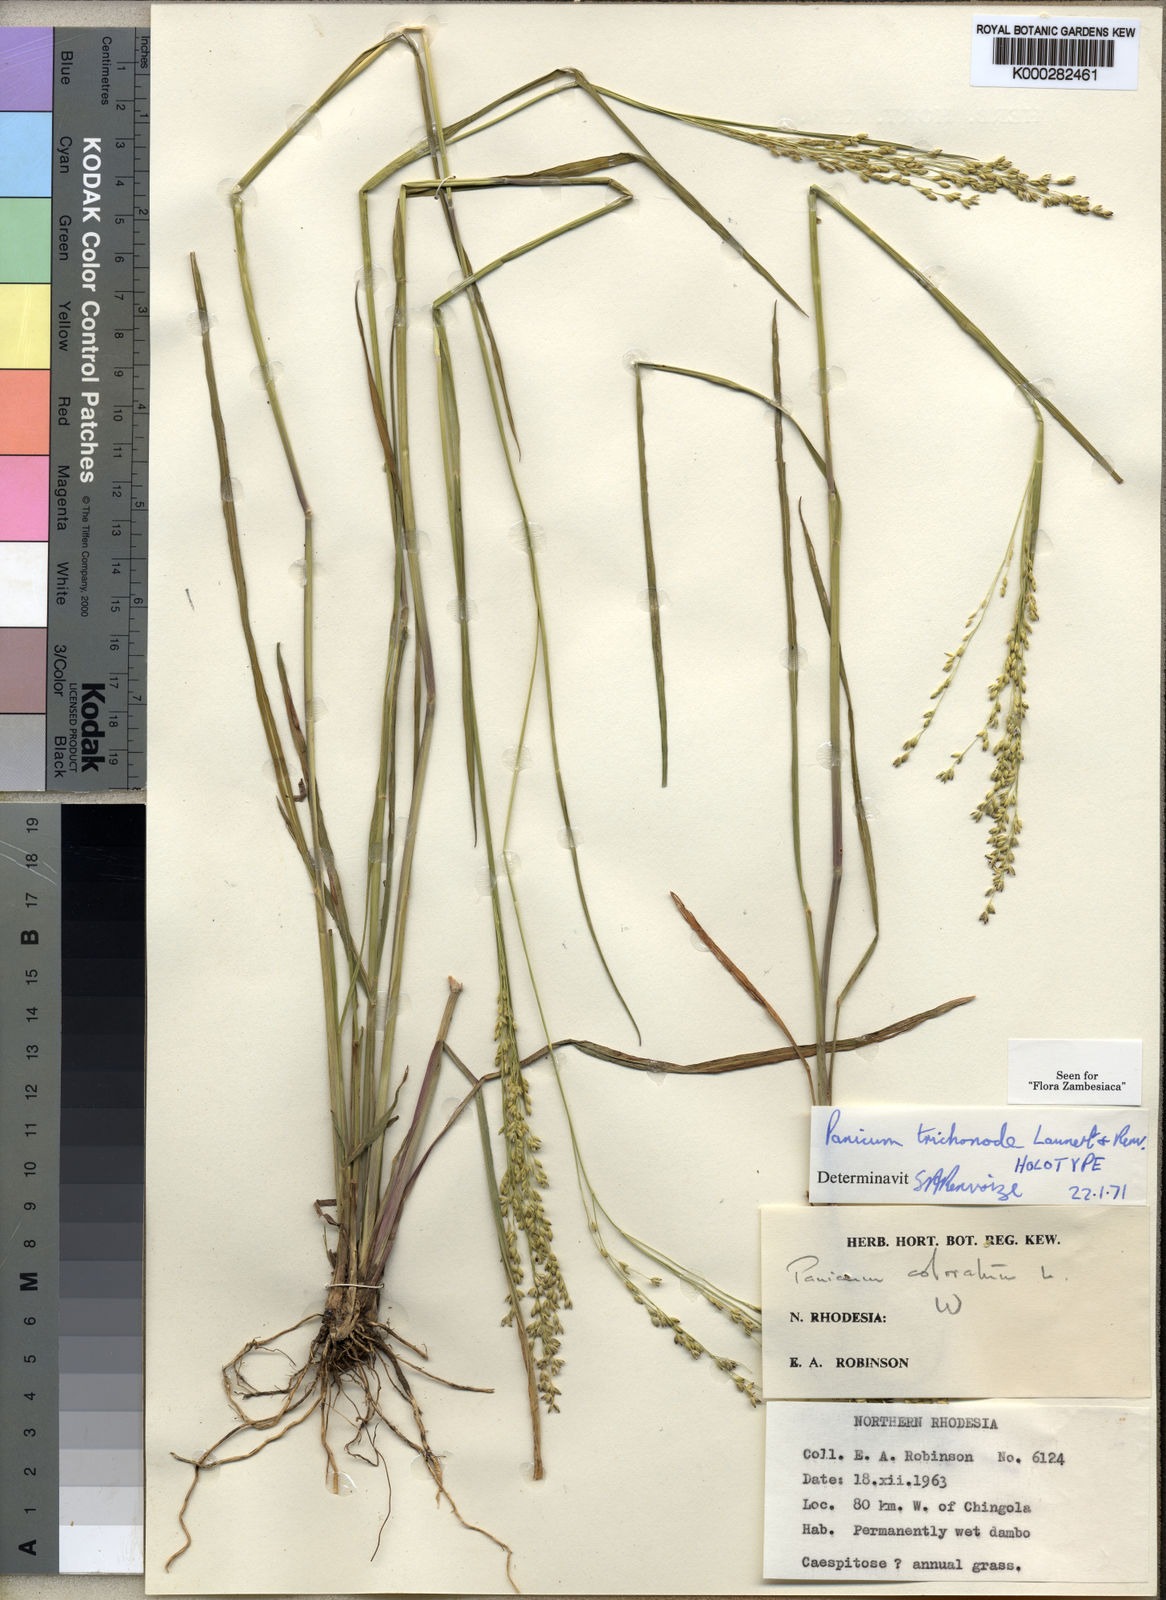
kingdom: Plantae
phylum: Tracheophyta
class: Liliopsida
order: Poales
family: Poaceae
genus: Panicum
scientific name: Panicum trichonode
